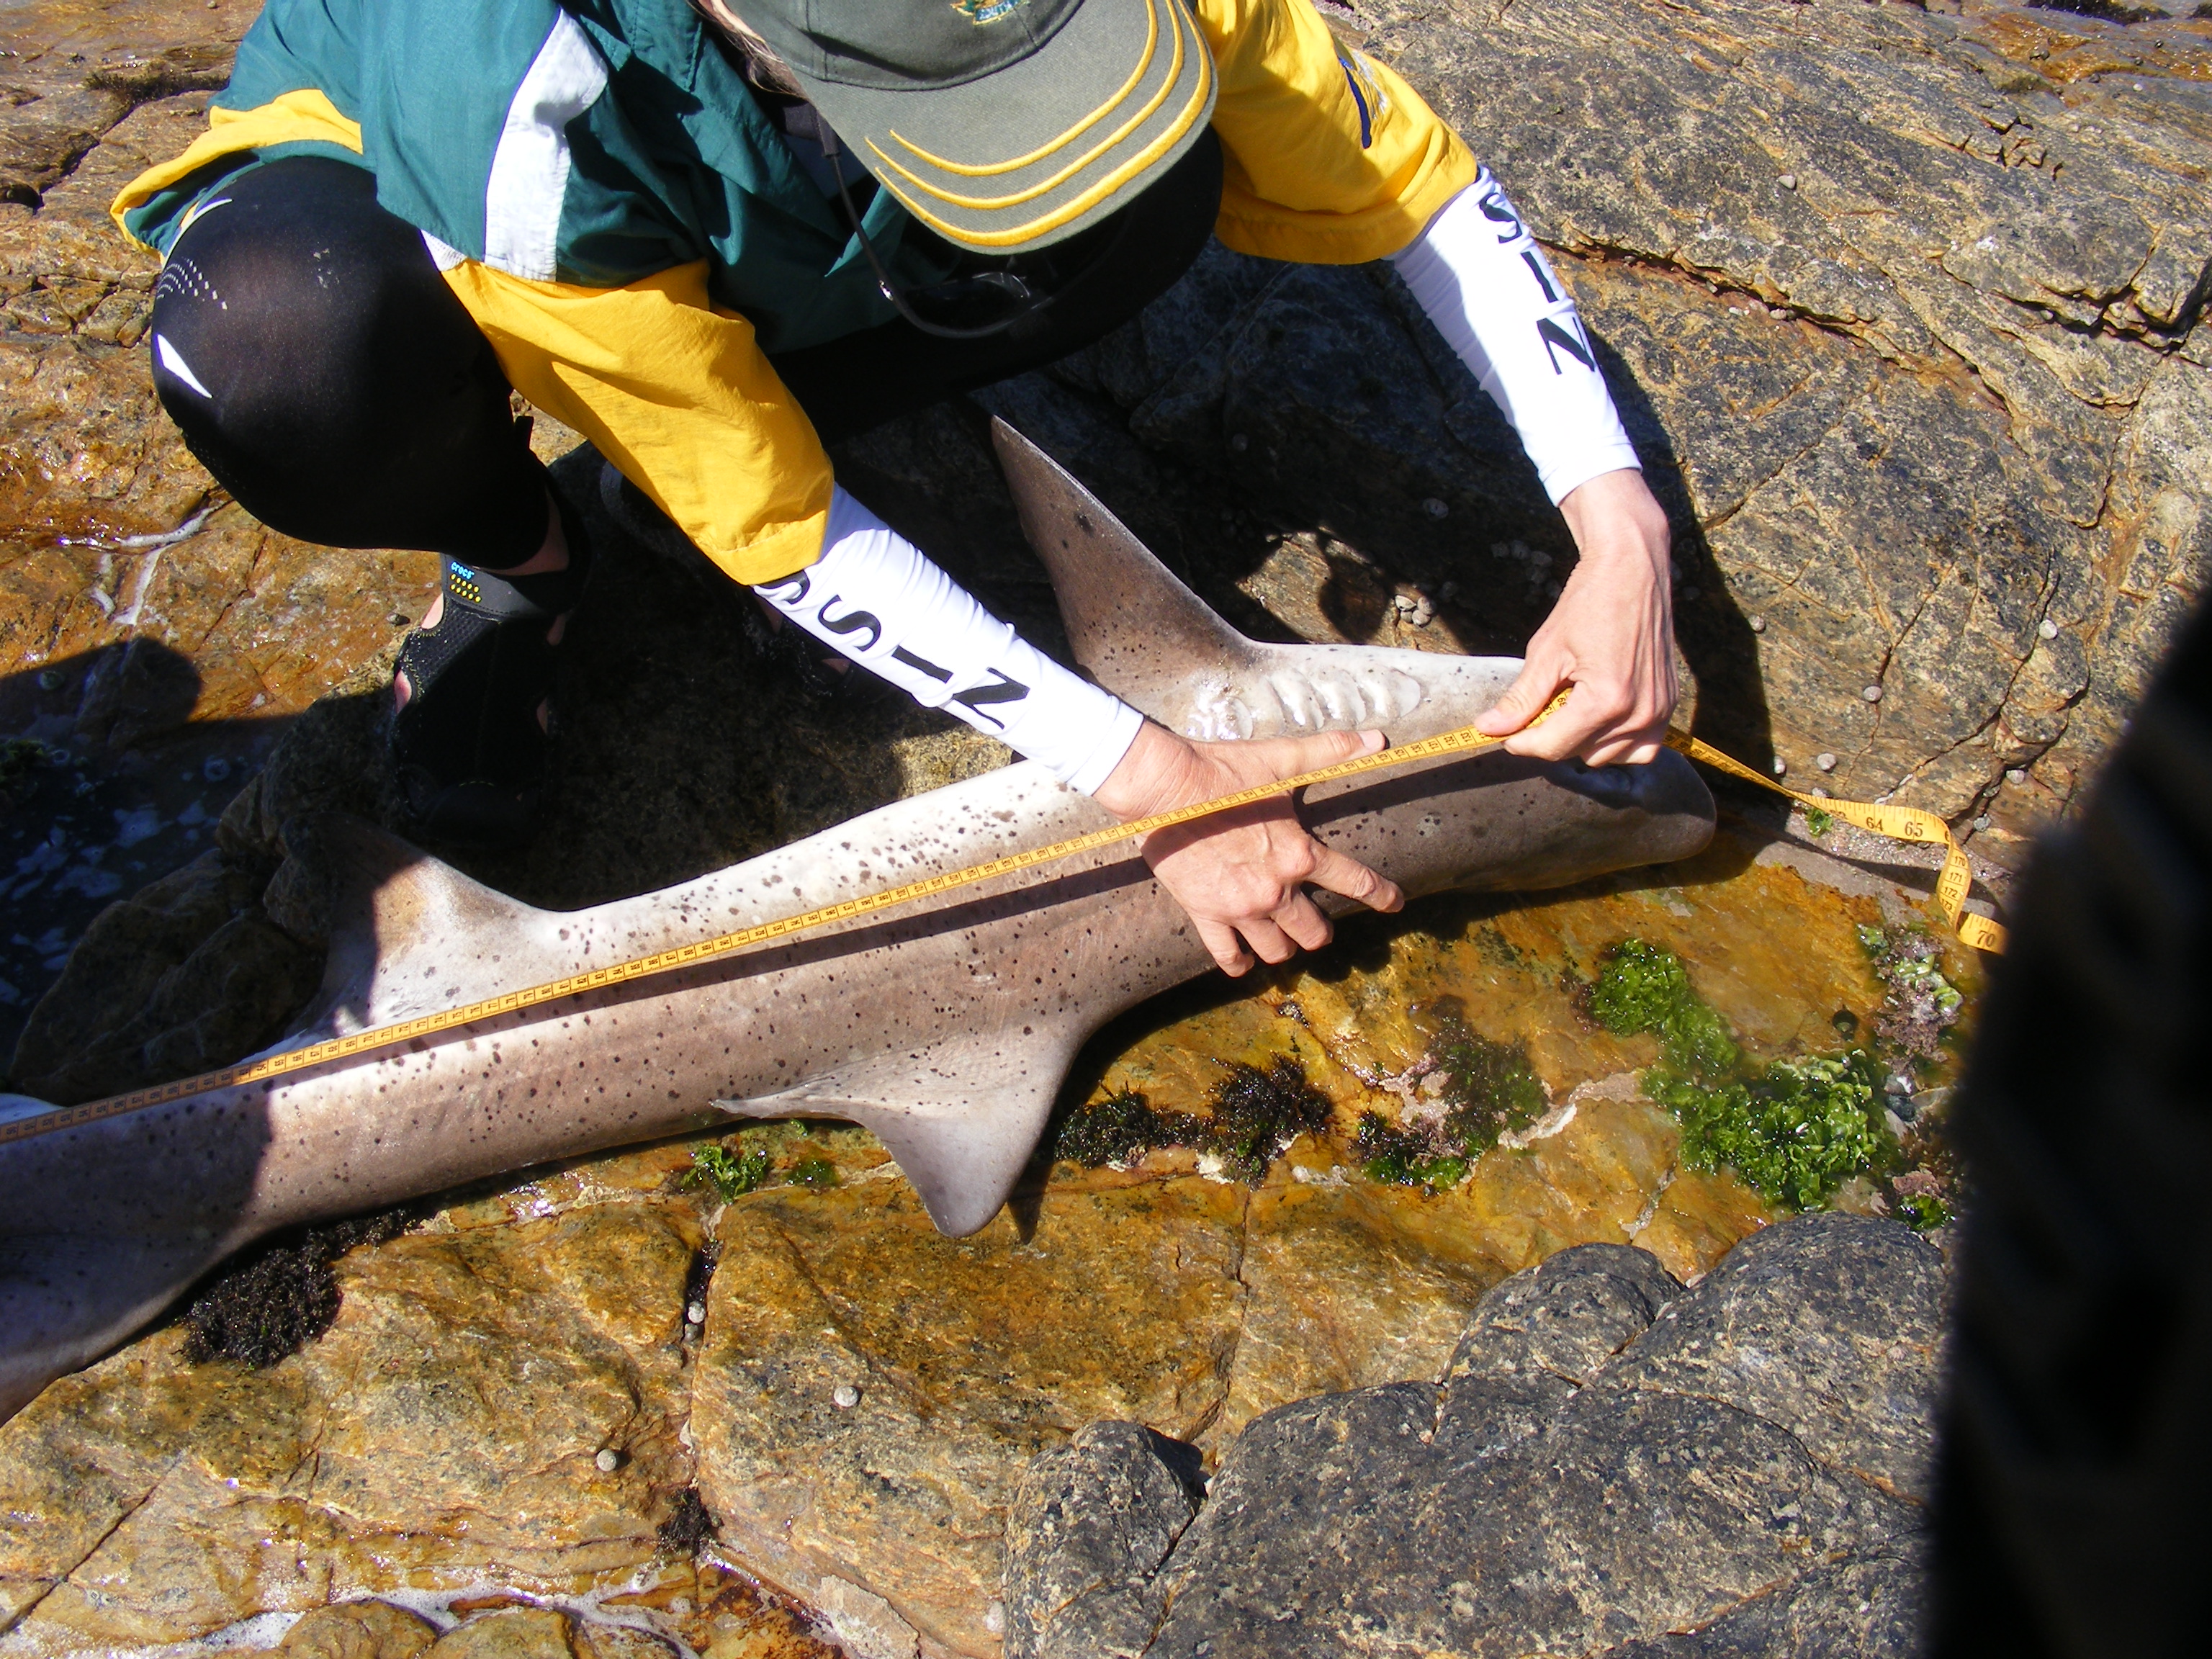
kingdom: Animalia
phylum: Chordata
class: Elasmobranchii
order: Carcharhiniformes
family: Triakidae
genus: Triakis
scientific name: Triakis megalopterus
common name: Spotted gully shark
